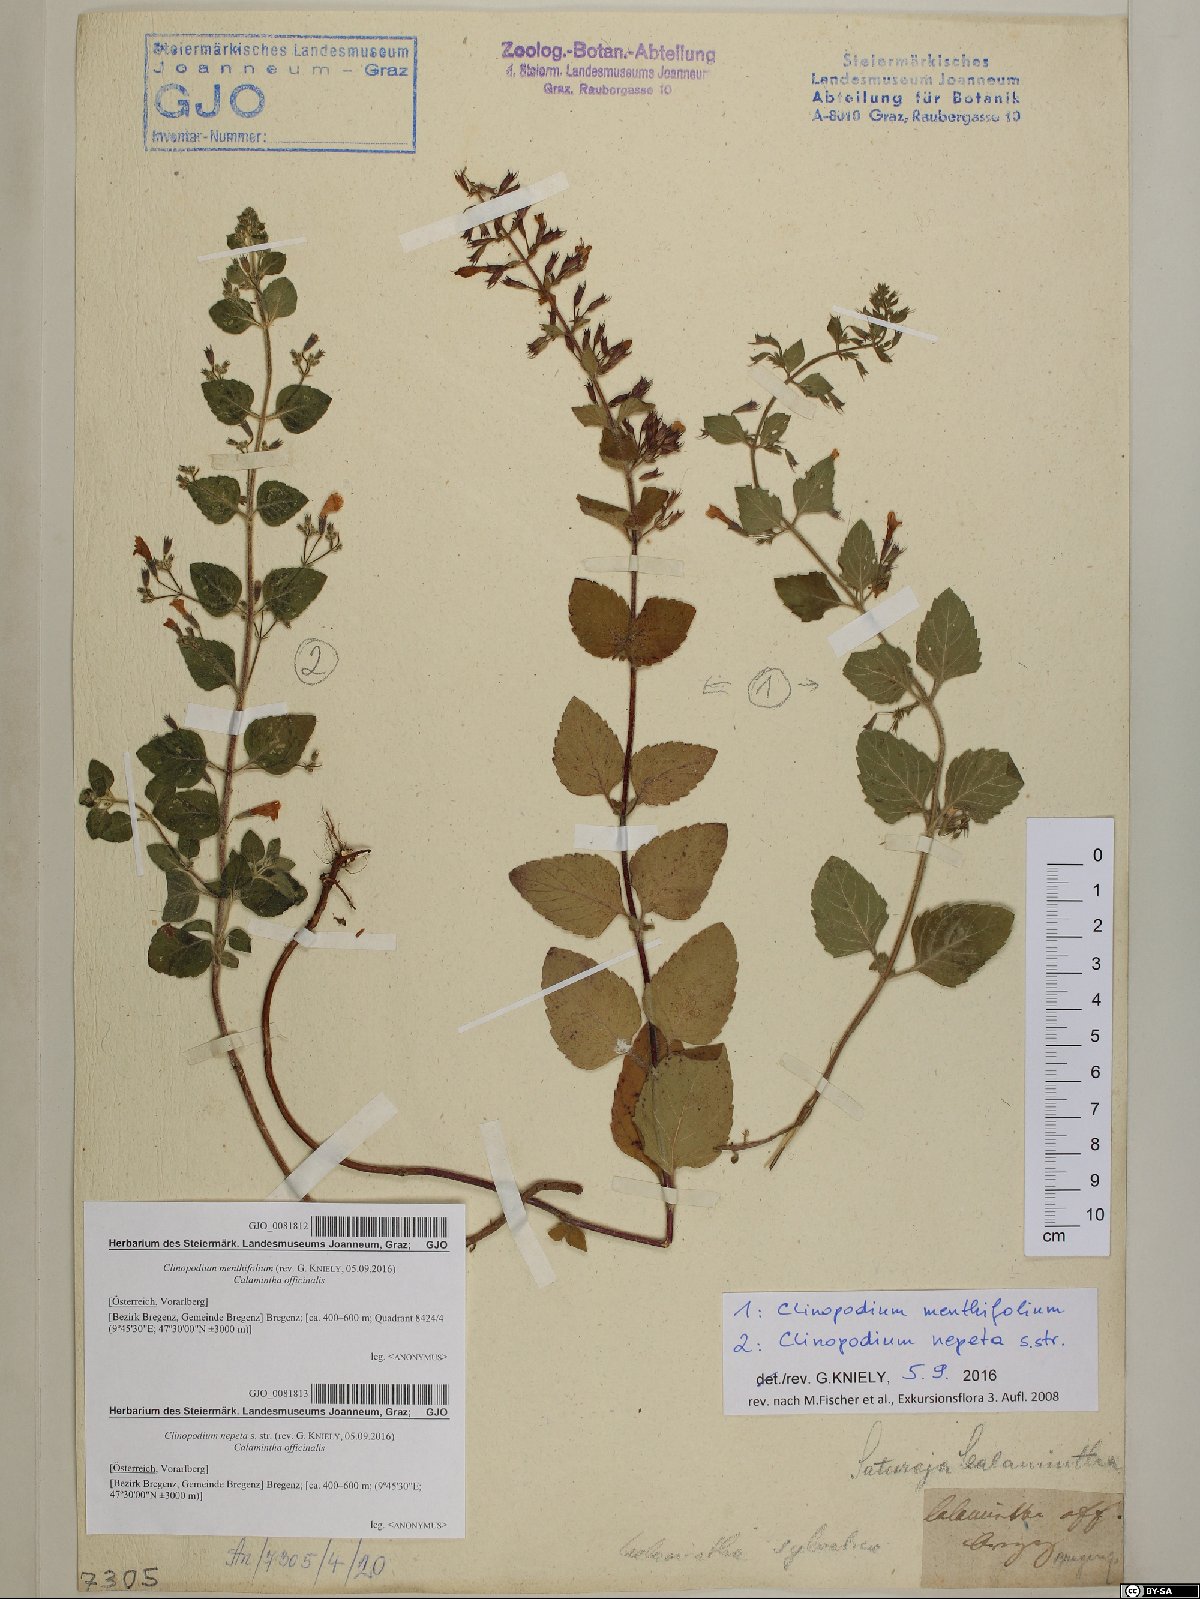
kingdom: Plantae
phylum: Tracheophyta
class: Magnoliopsida
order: Lamiales
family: Lamiaceae
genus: Clinopodium
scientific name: Clinopodium menthifolium
